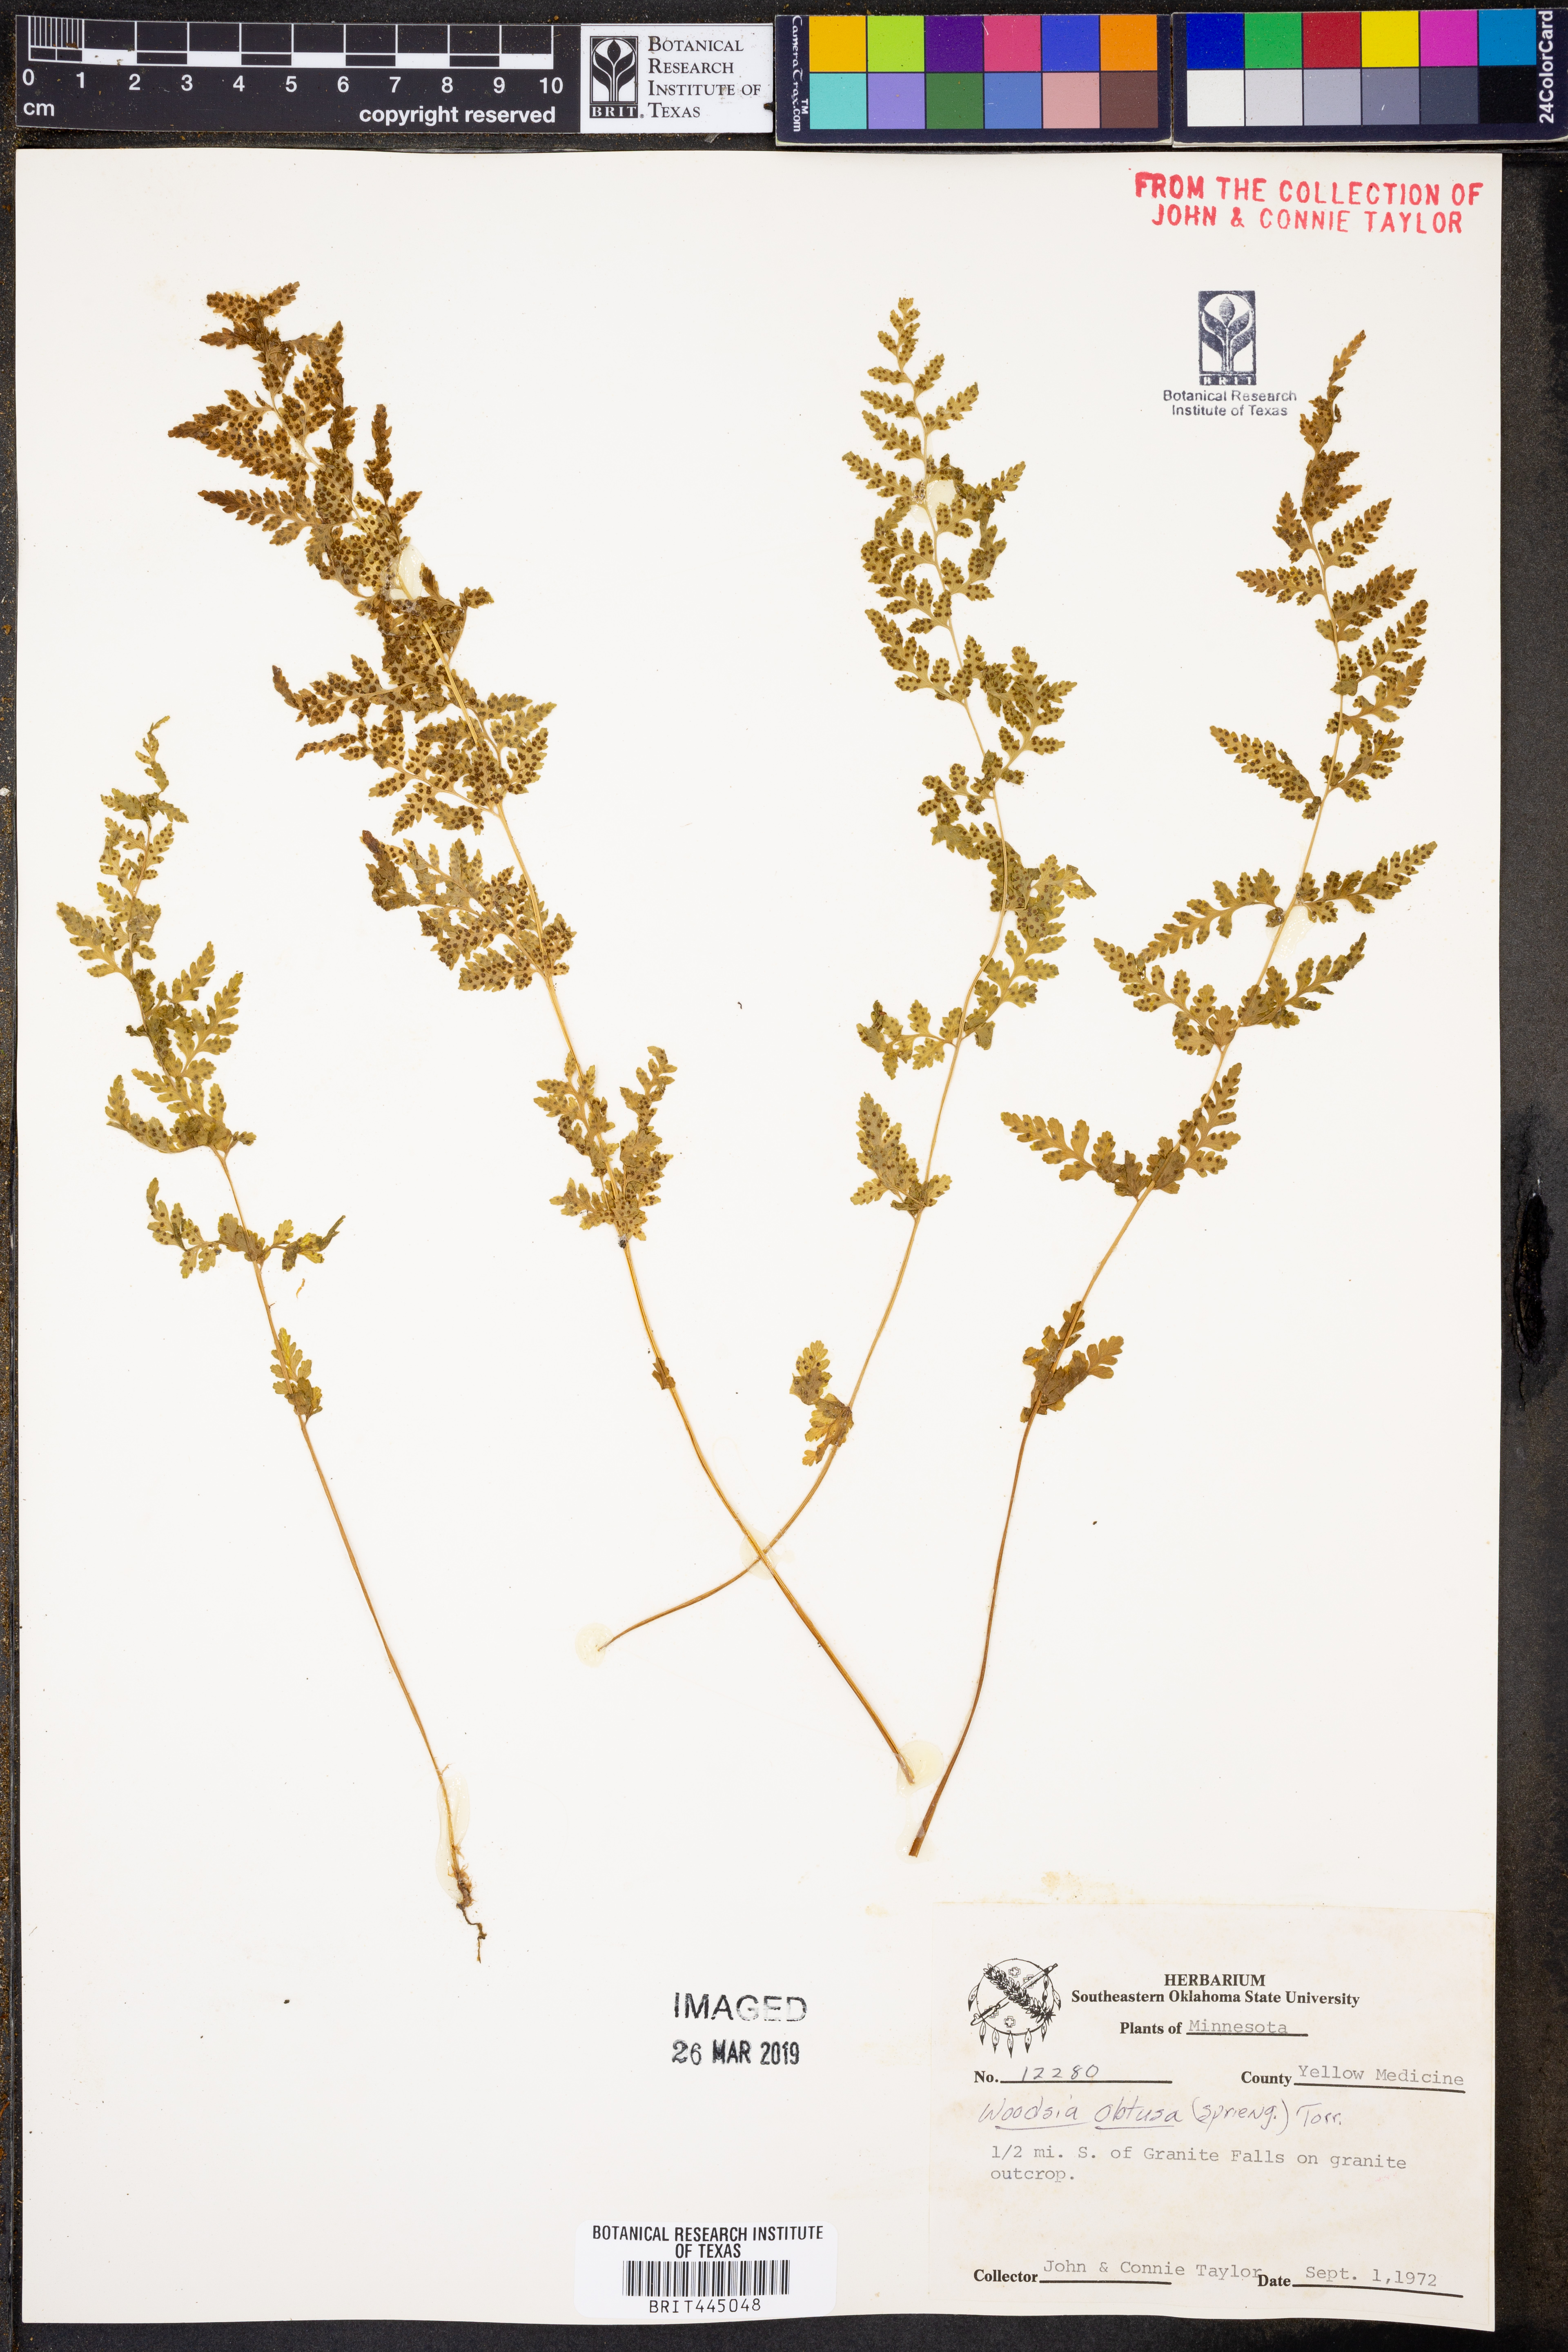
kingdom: Plantae
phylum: Tracheophyta
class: Polypodiopsida
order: Polypodiales
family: Woodsiaceae
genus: Physematium
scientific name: Physematium obtusum
